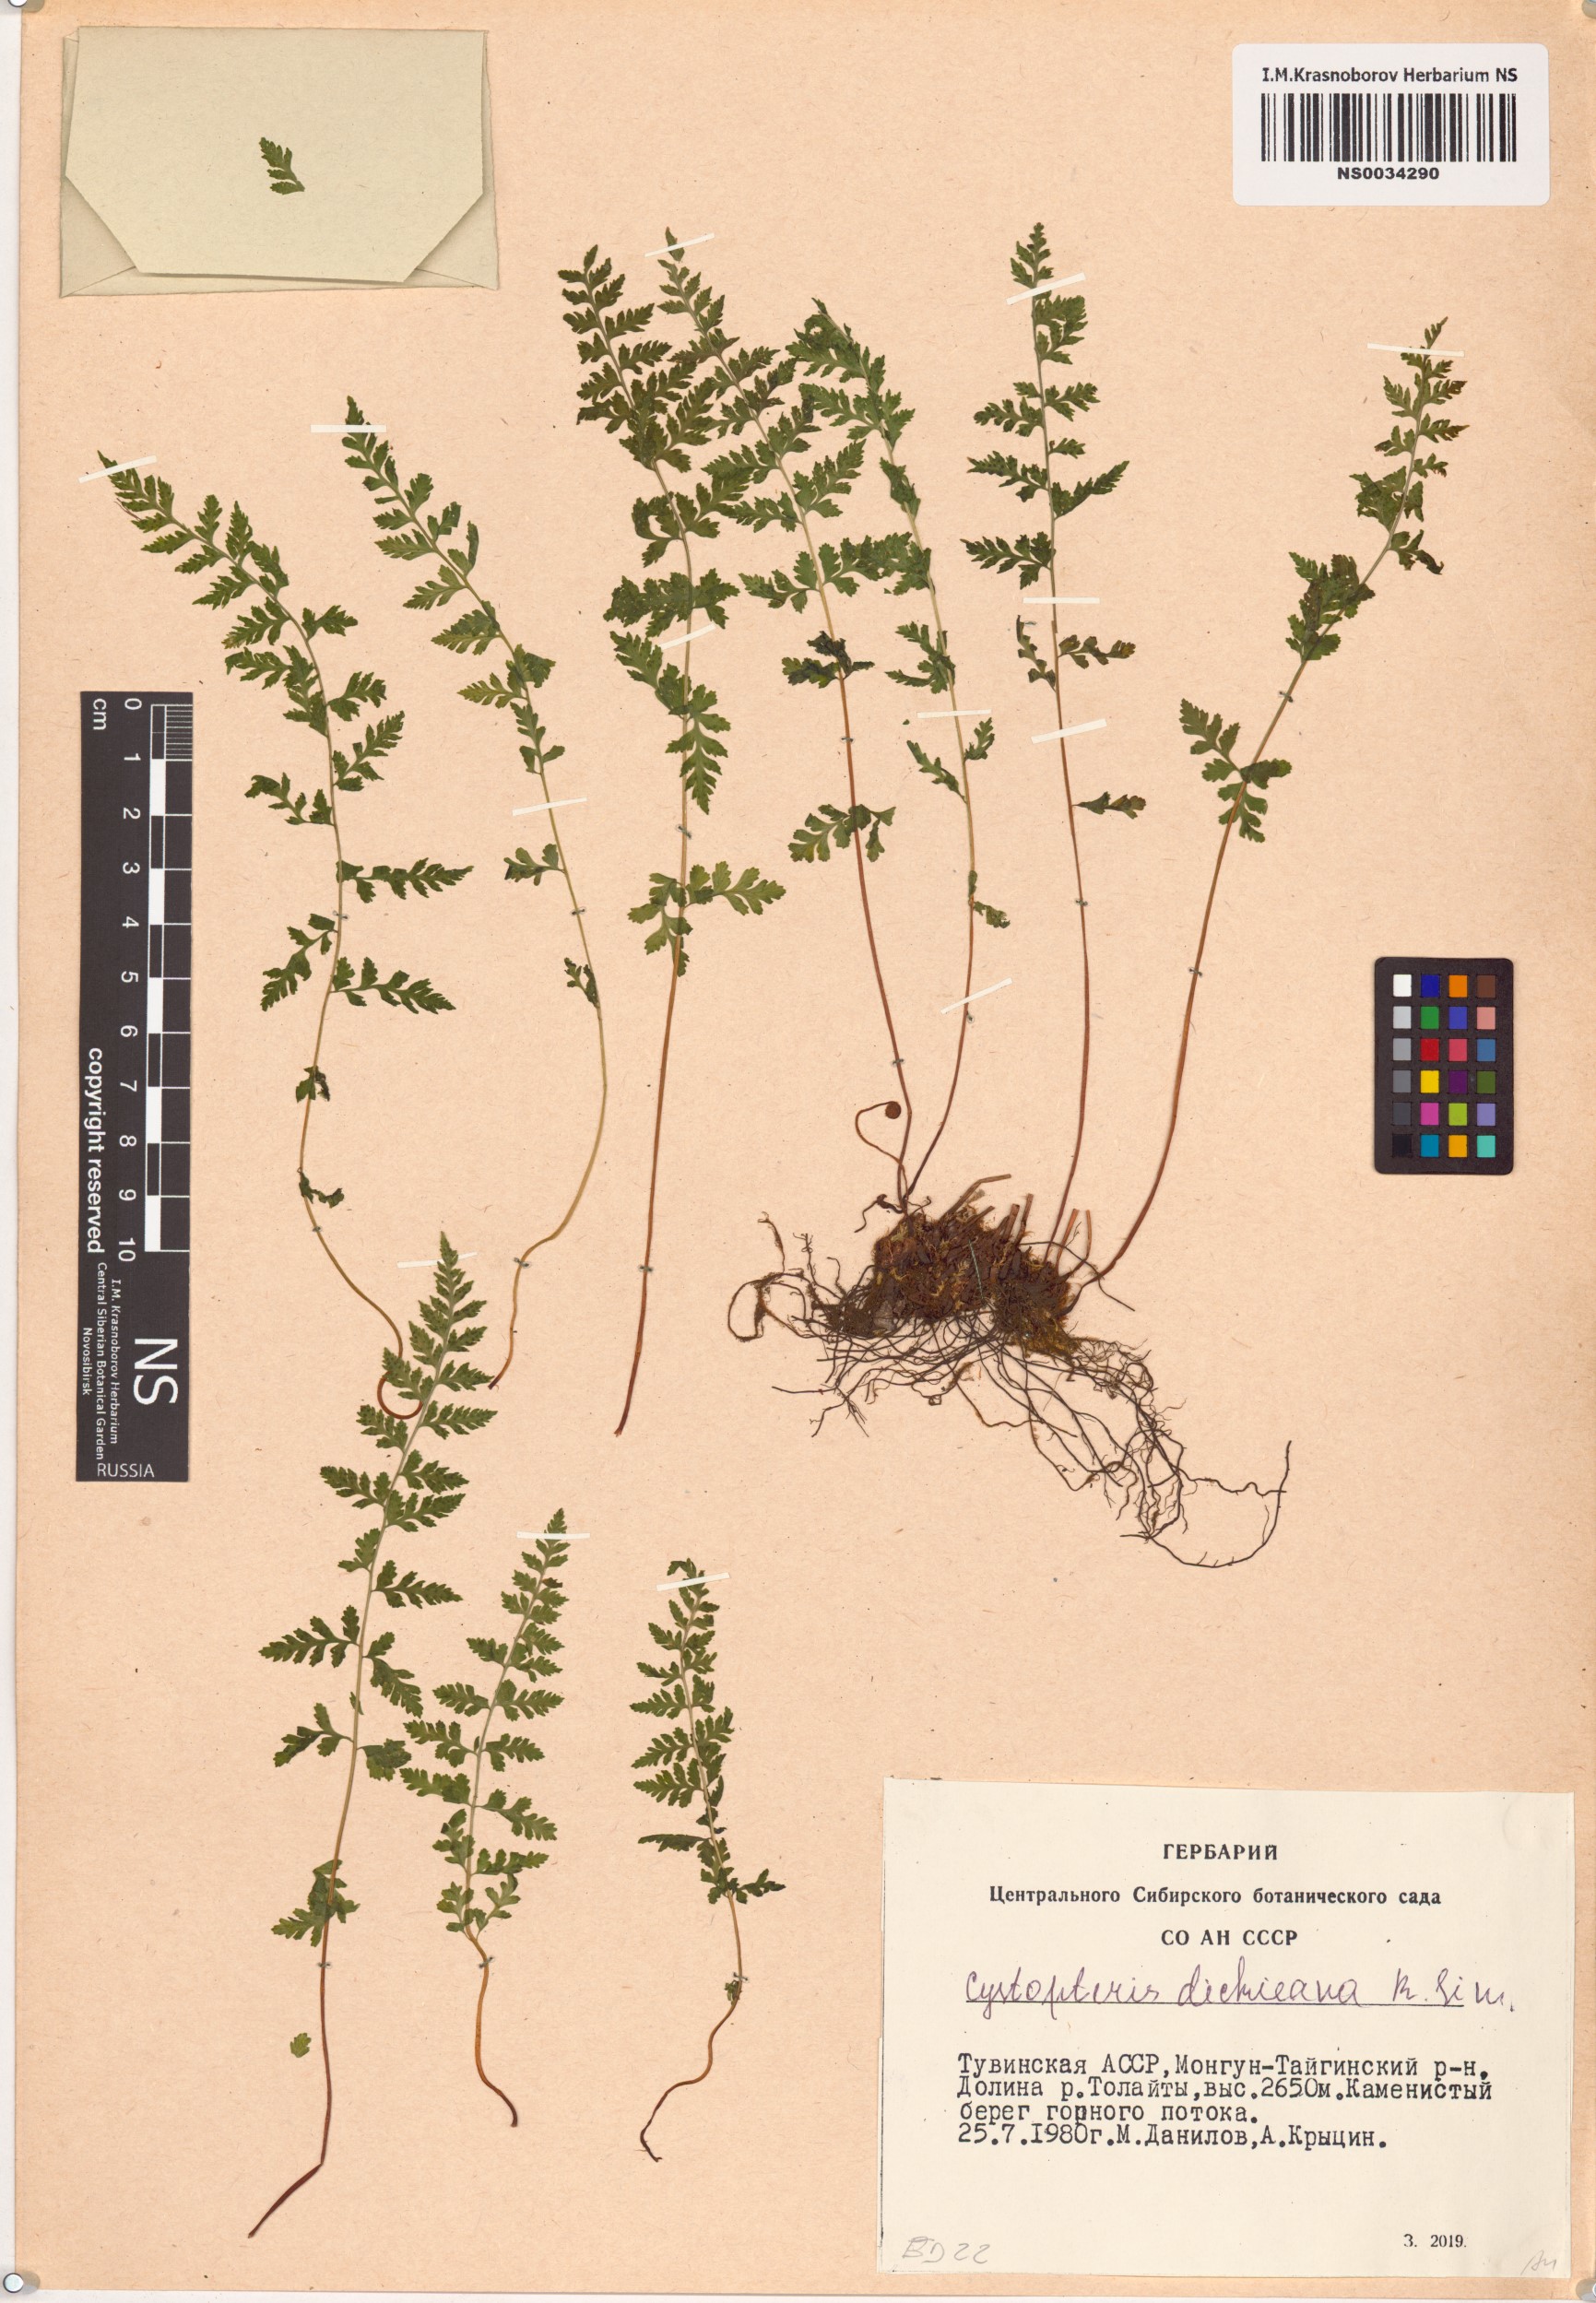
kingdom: Plantae
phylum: Tracheophyta
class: Polypodiopsida
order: Polypodiales
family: Cystopteridaceae
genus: Cystopteris
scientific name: Cystopteris dickieana
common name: Dickie's bladder-fern
